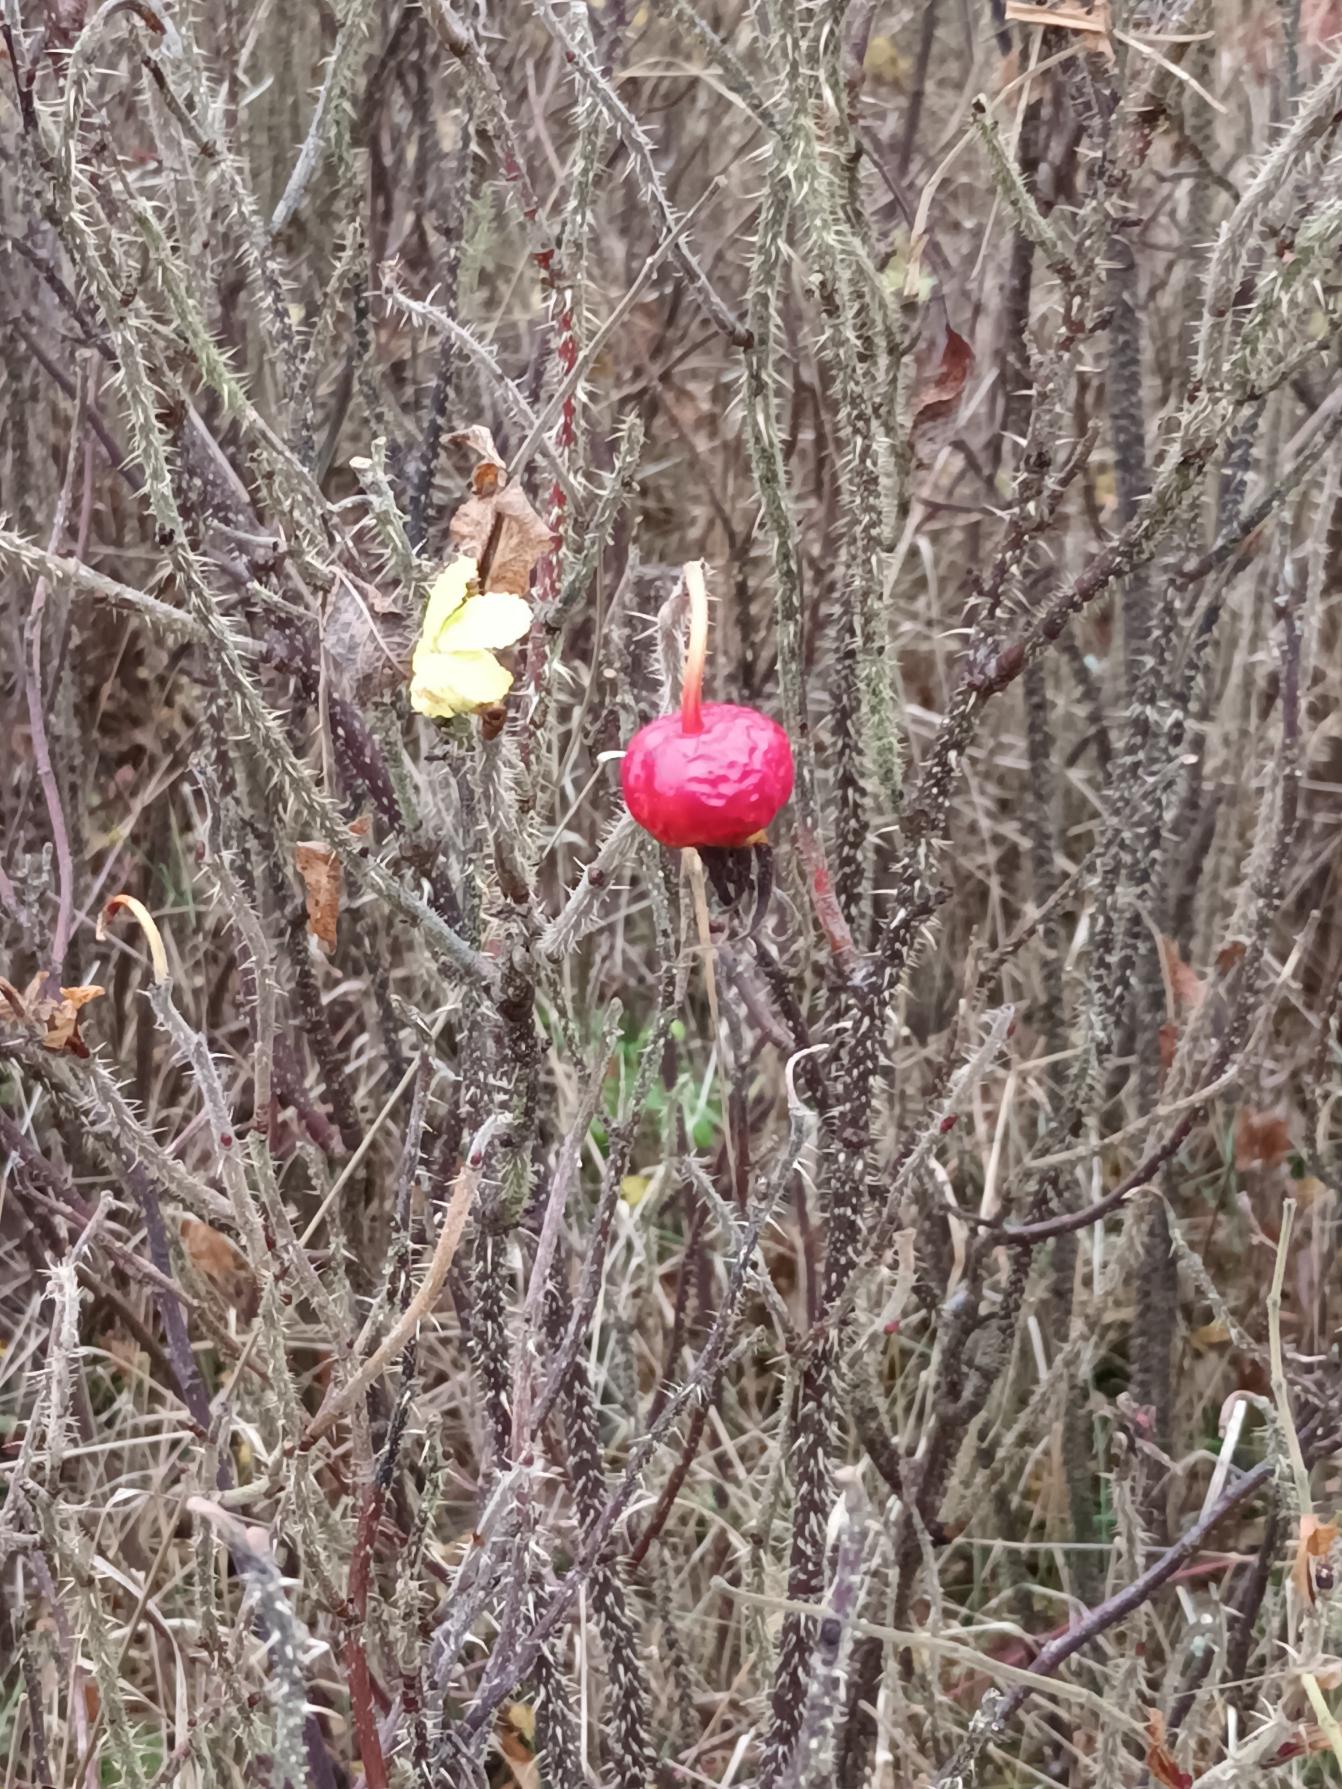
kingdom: Plantae
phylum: Tracheophyta
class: Magnoliopsida
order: Rosales
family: Rosaceae
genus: Rosa
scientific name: Rosa rugosa
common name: Rynket rose
